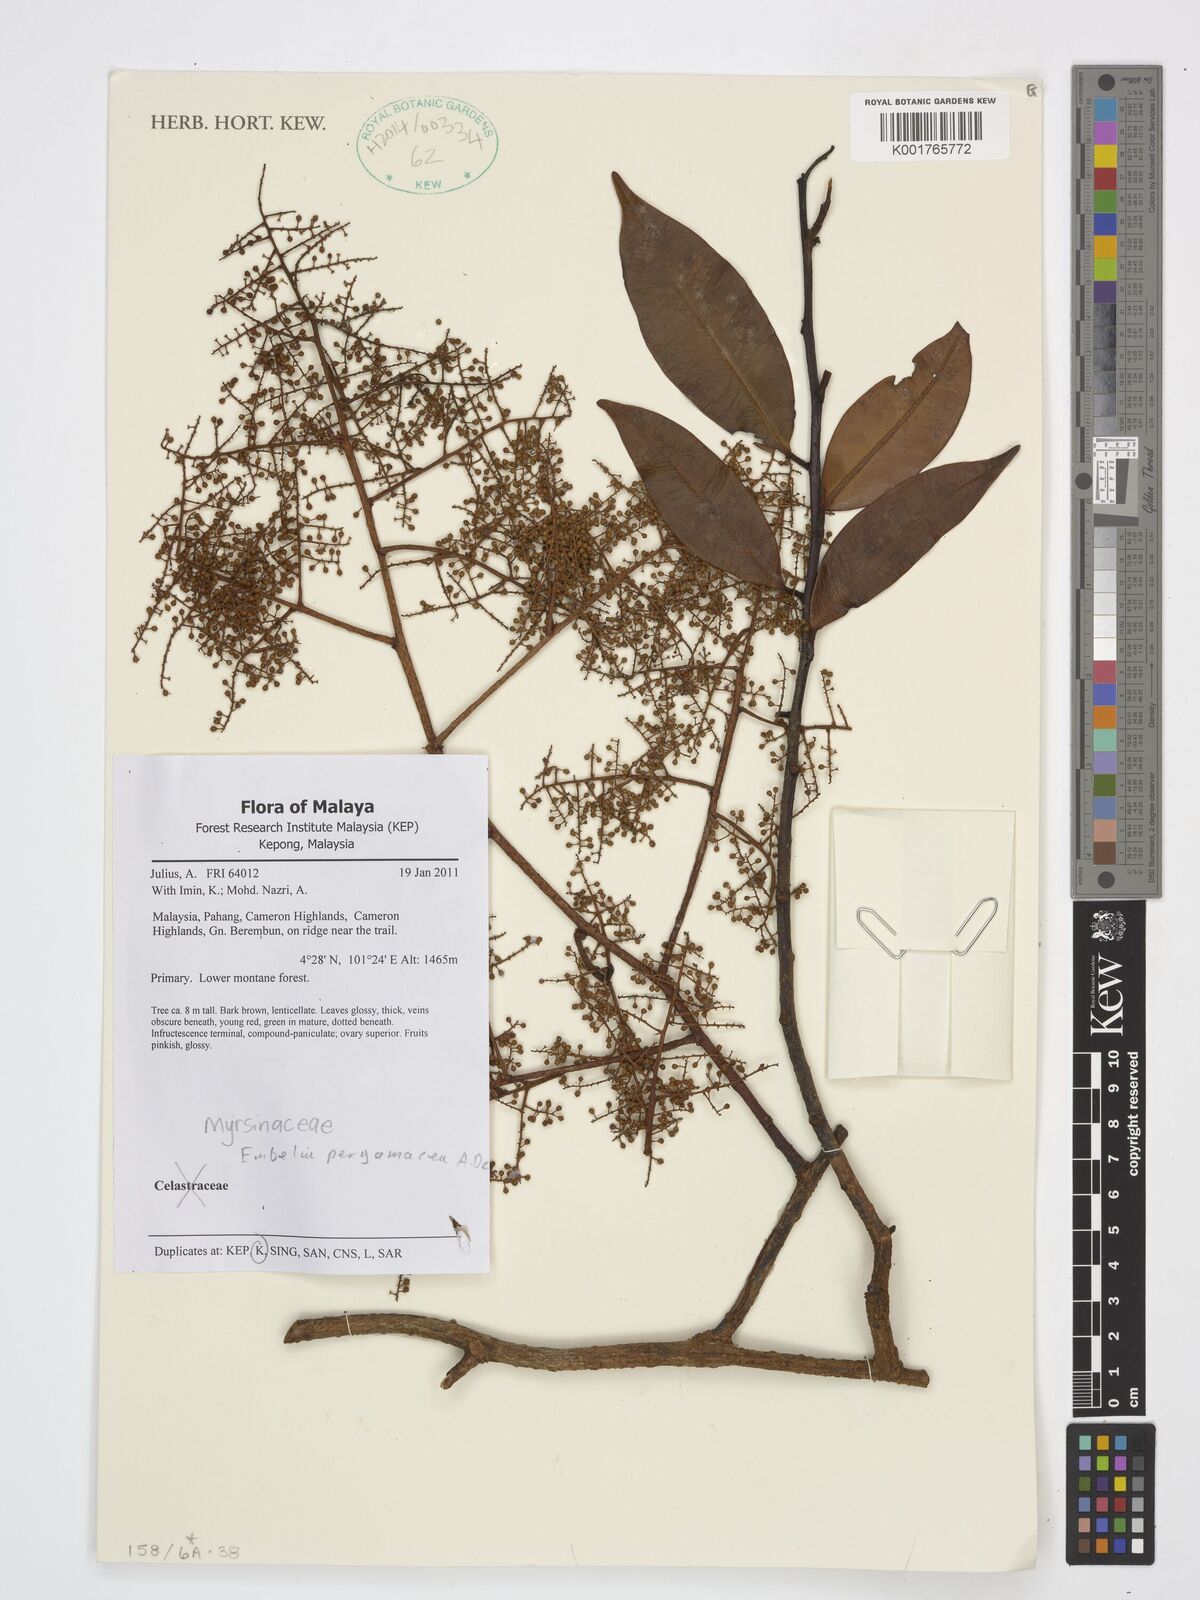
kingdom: Plantae
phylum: Tracheophyta
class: Magnoliopsida
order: Ericales
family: Primulaceae
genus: Embelia
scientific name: Embelia pergamacea
